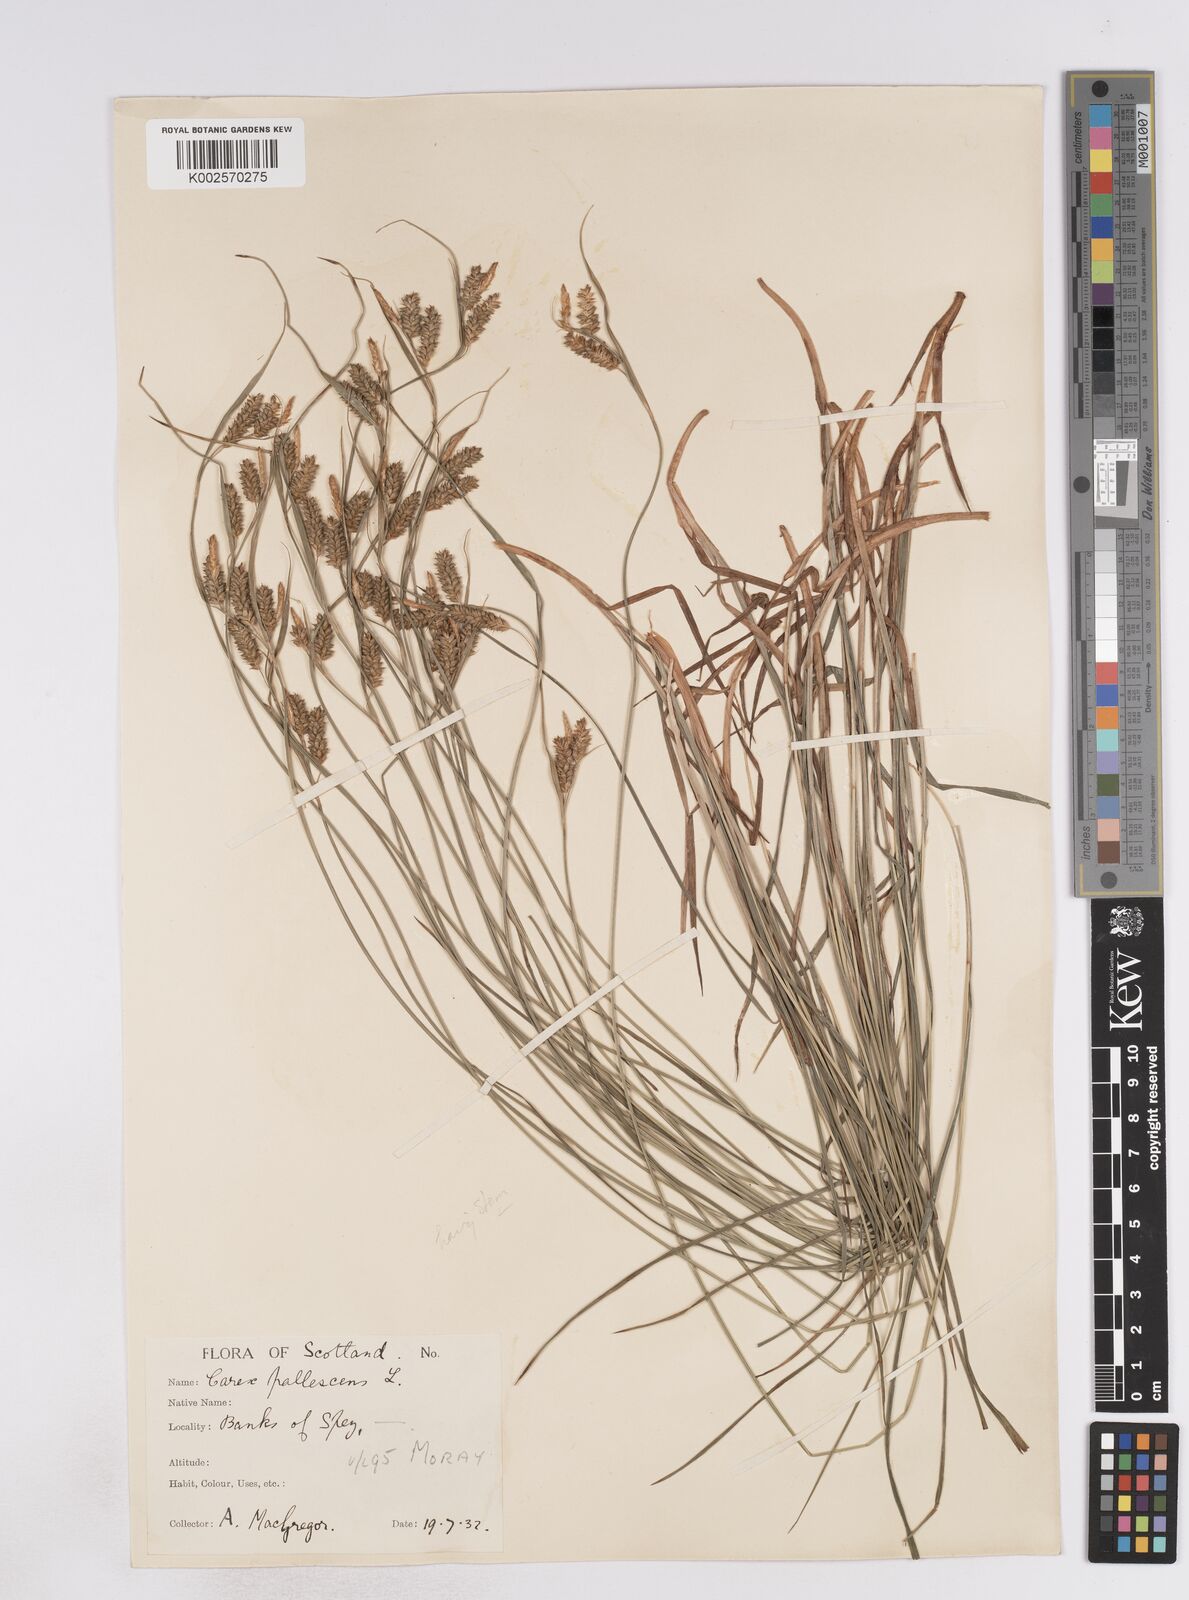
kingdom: Plantae
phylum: Tracheophyta
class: Liliopsida
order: Poales
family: Cyperaceae
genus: Carex
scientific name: Carex pallescens
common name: Pale sedge
